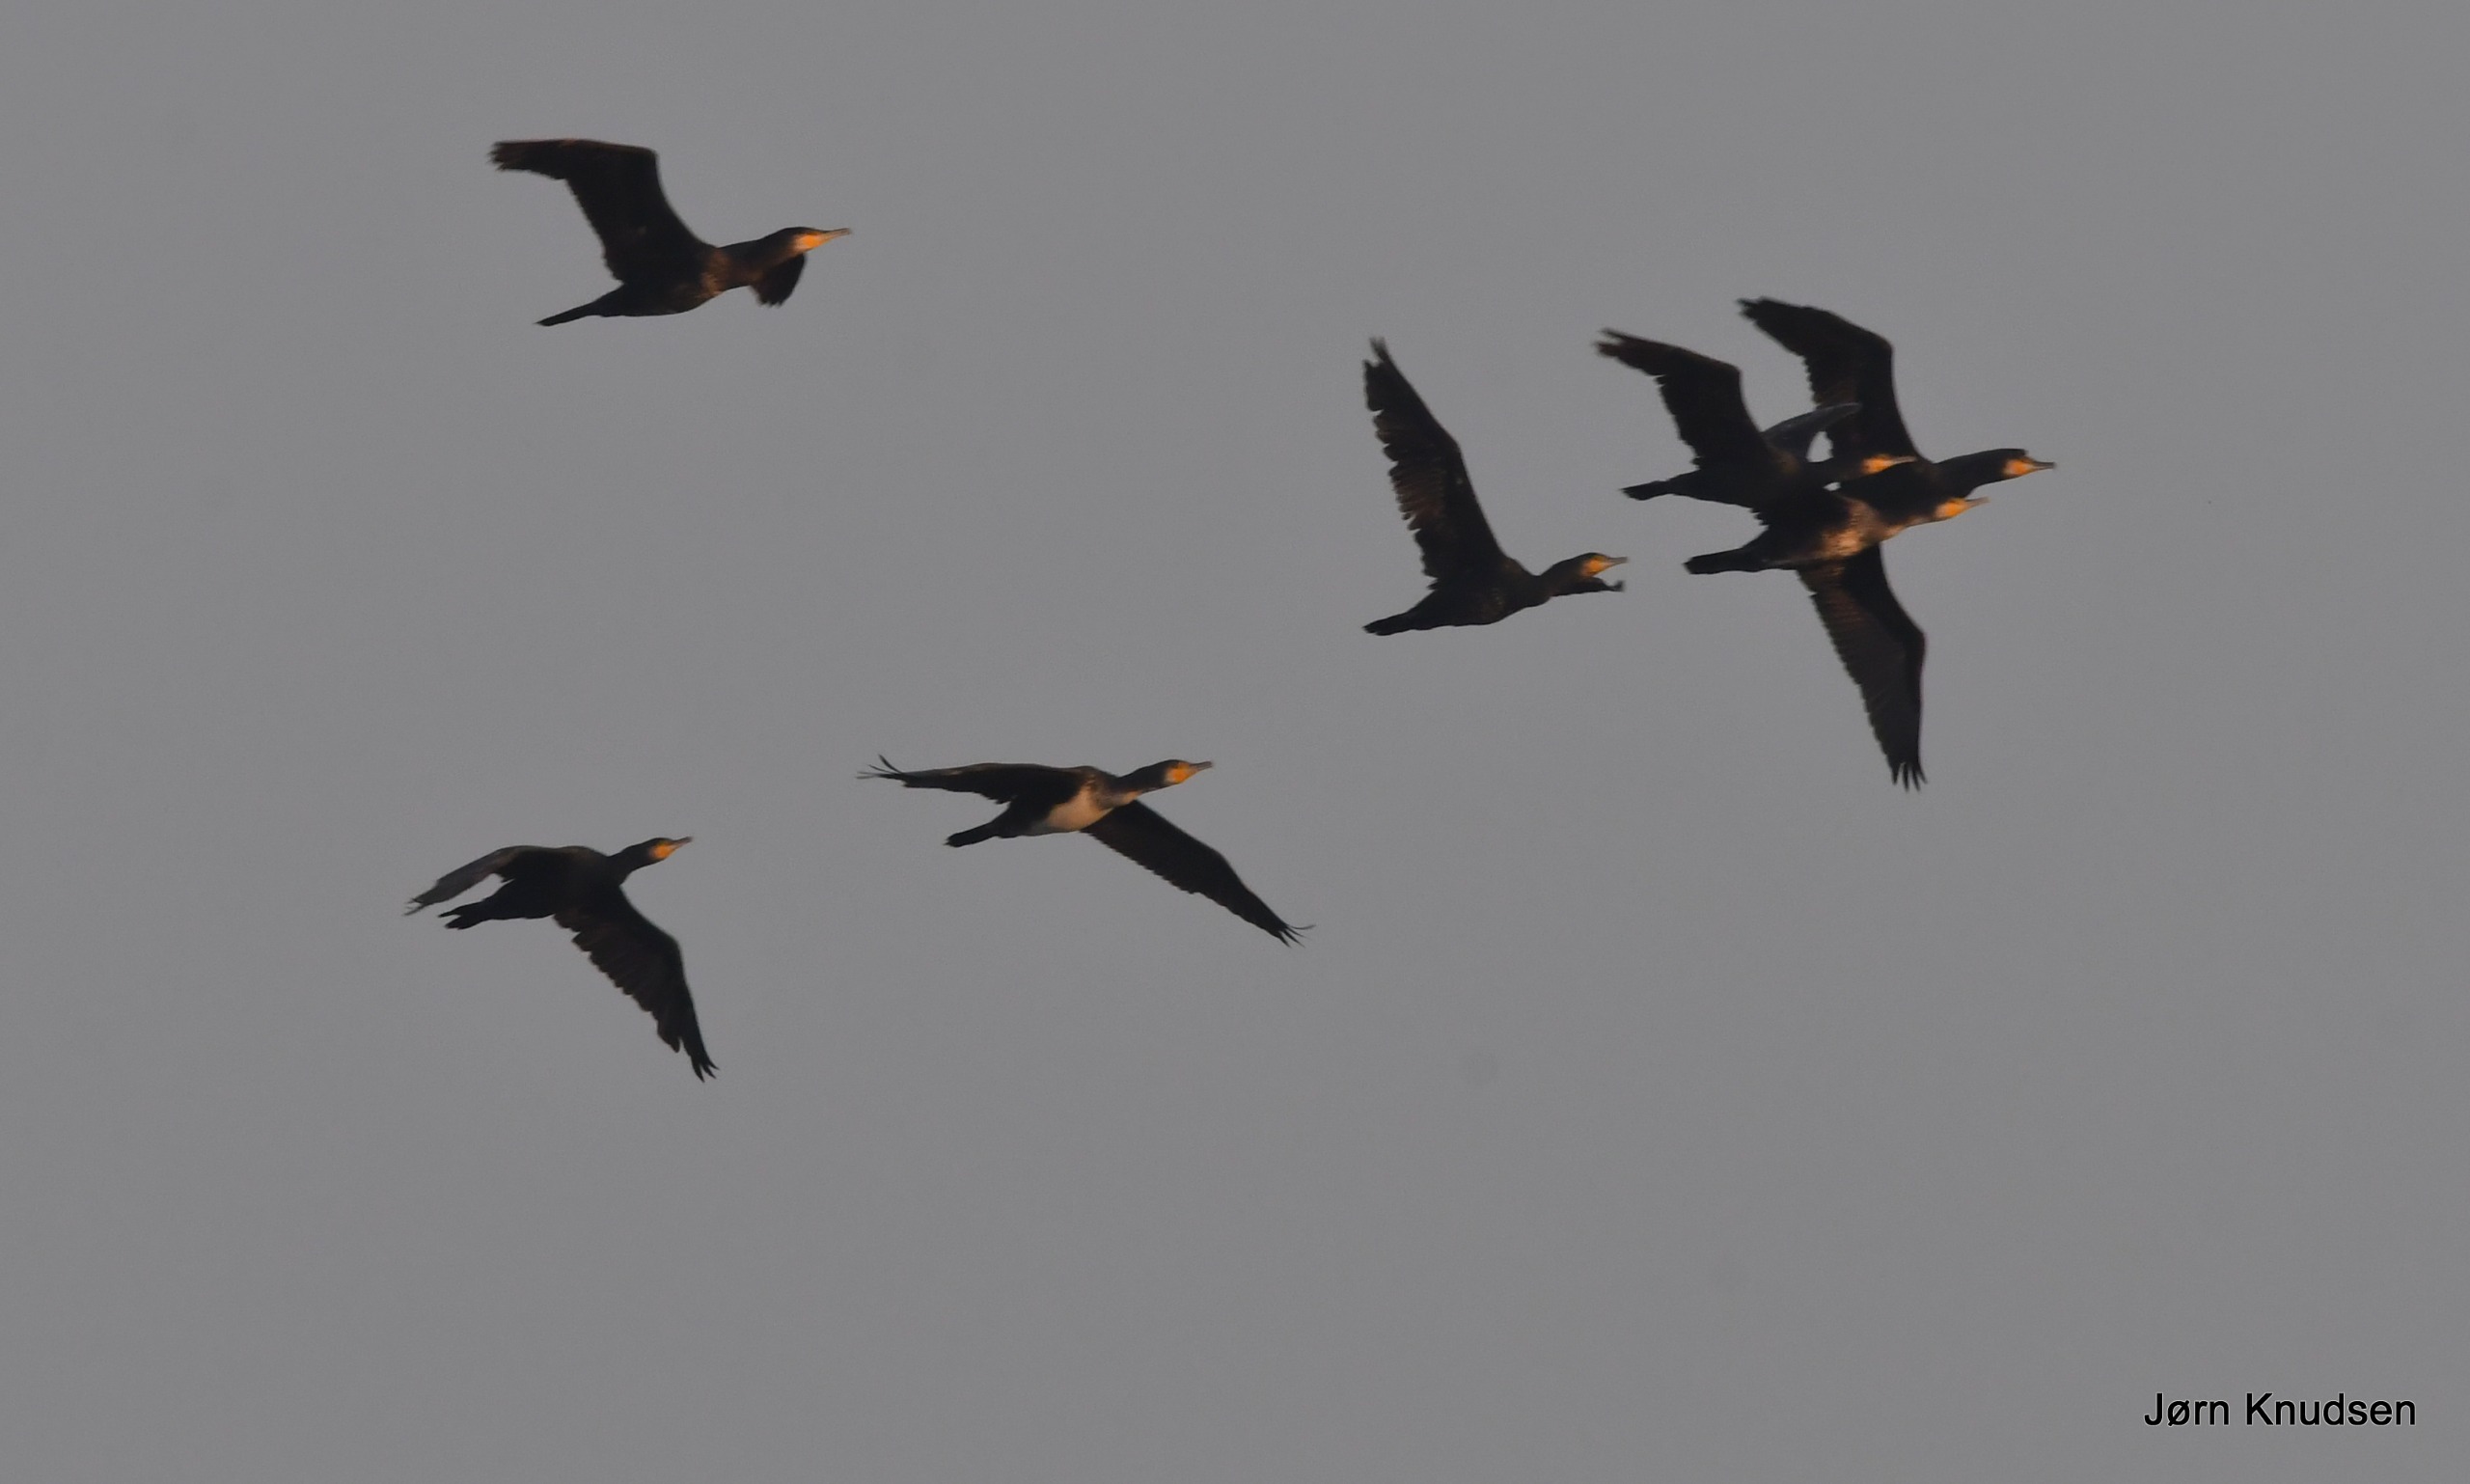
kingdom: Animalia
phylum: Chordata
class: Aves
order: Suliformes
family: Phalacrocoracidae
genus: Phalacrocorax
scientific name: Phalacrocorax carbo
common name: Skarv
